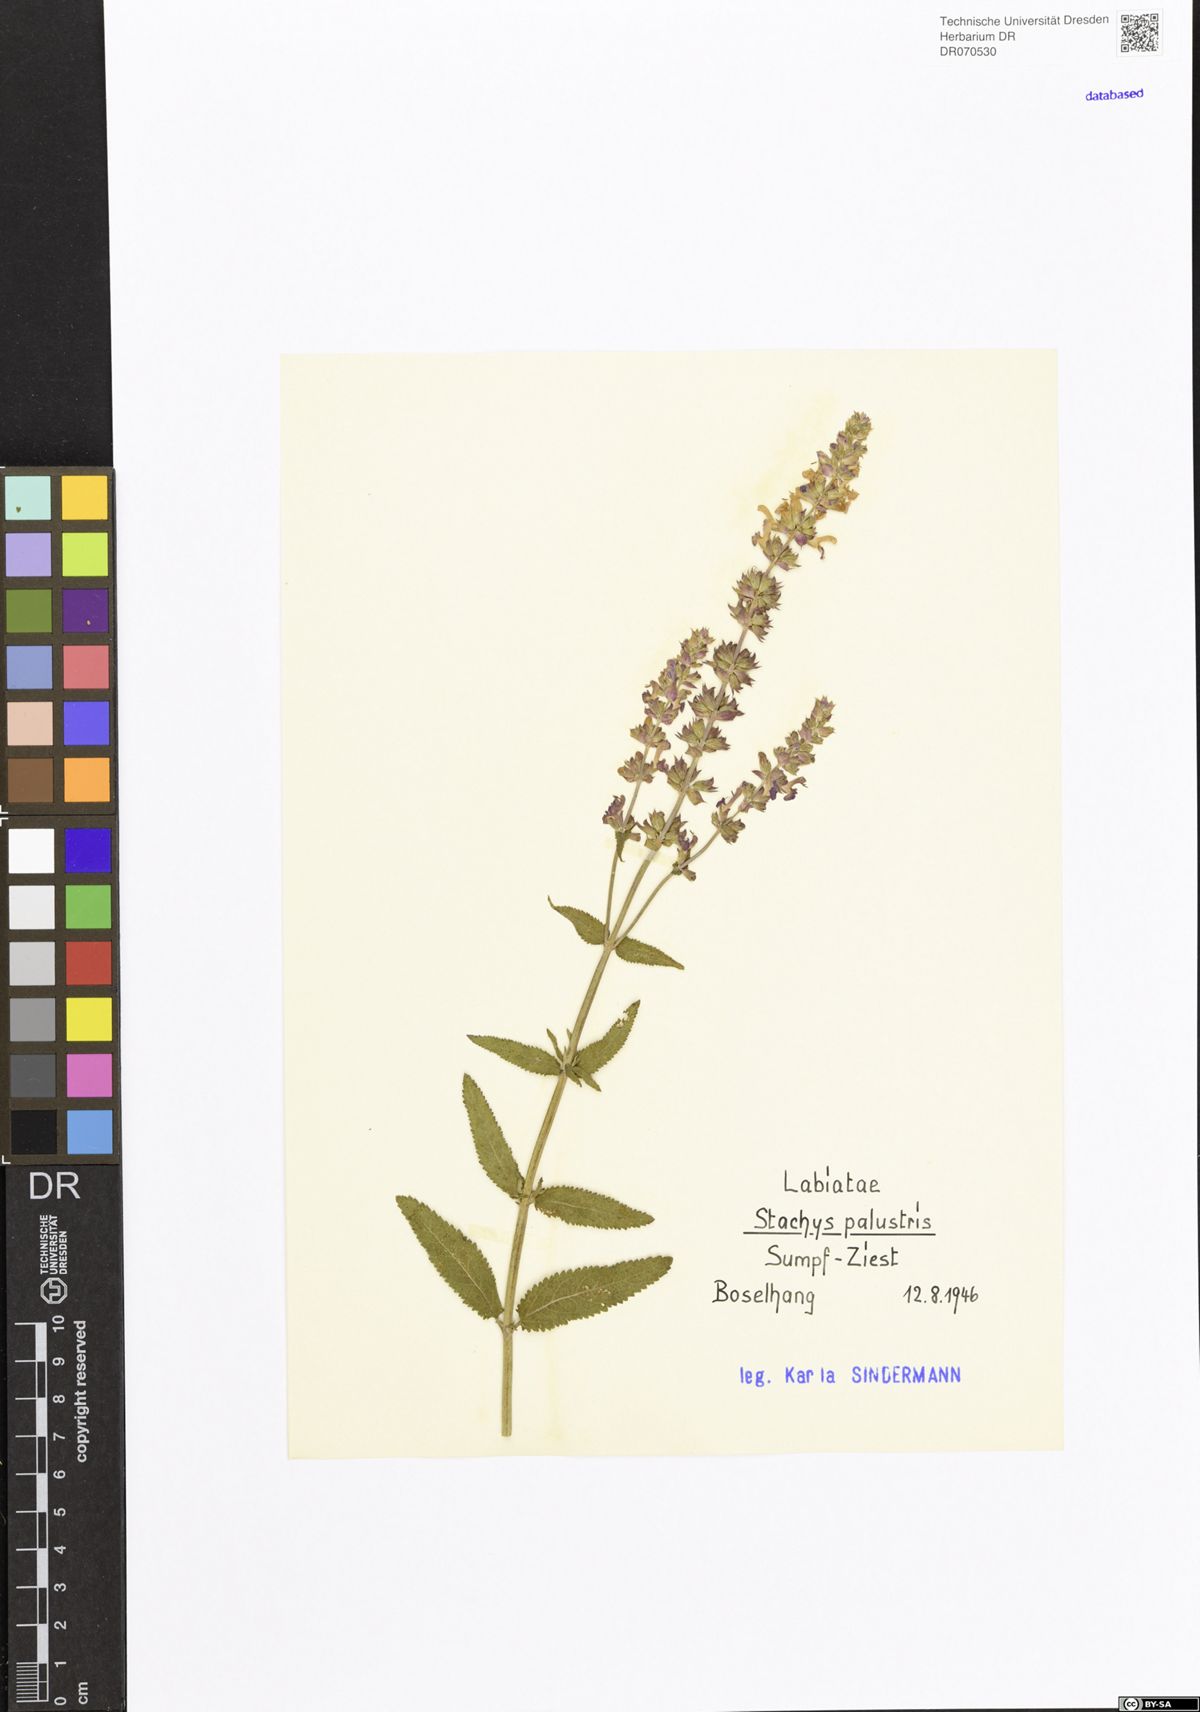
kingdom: Plantae
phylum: Tracheophyta
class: Magnoliopsida
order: Lamiales
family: Lamiaceae
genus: Stachys
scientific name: Stachys palustris
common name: Marsh woundwort
